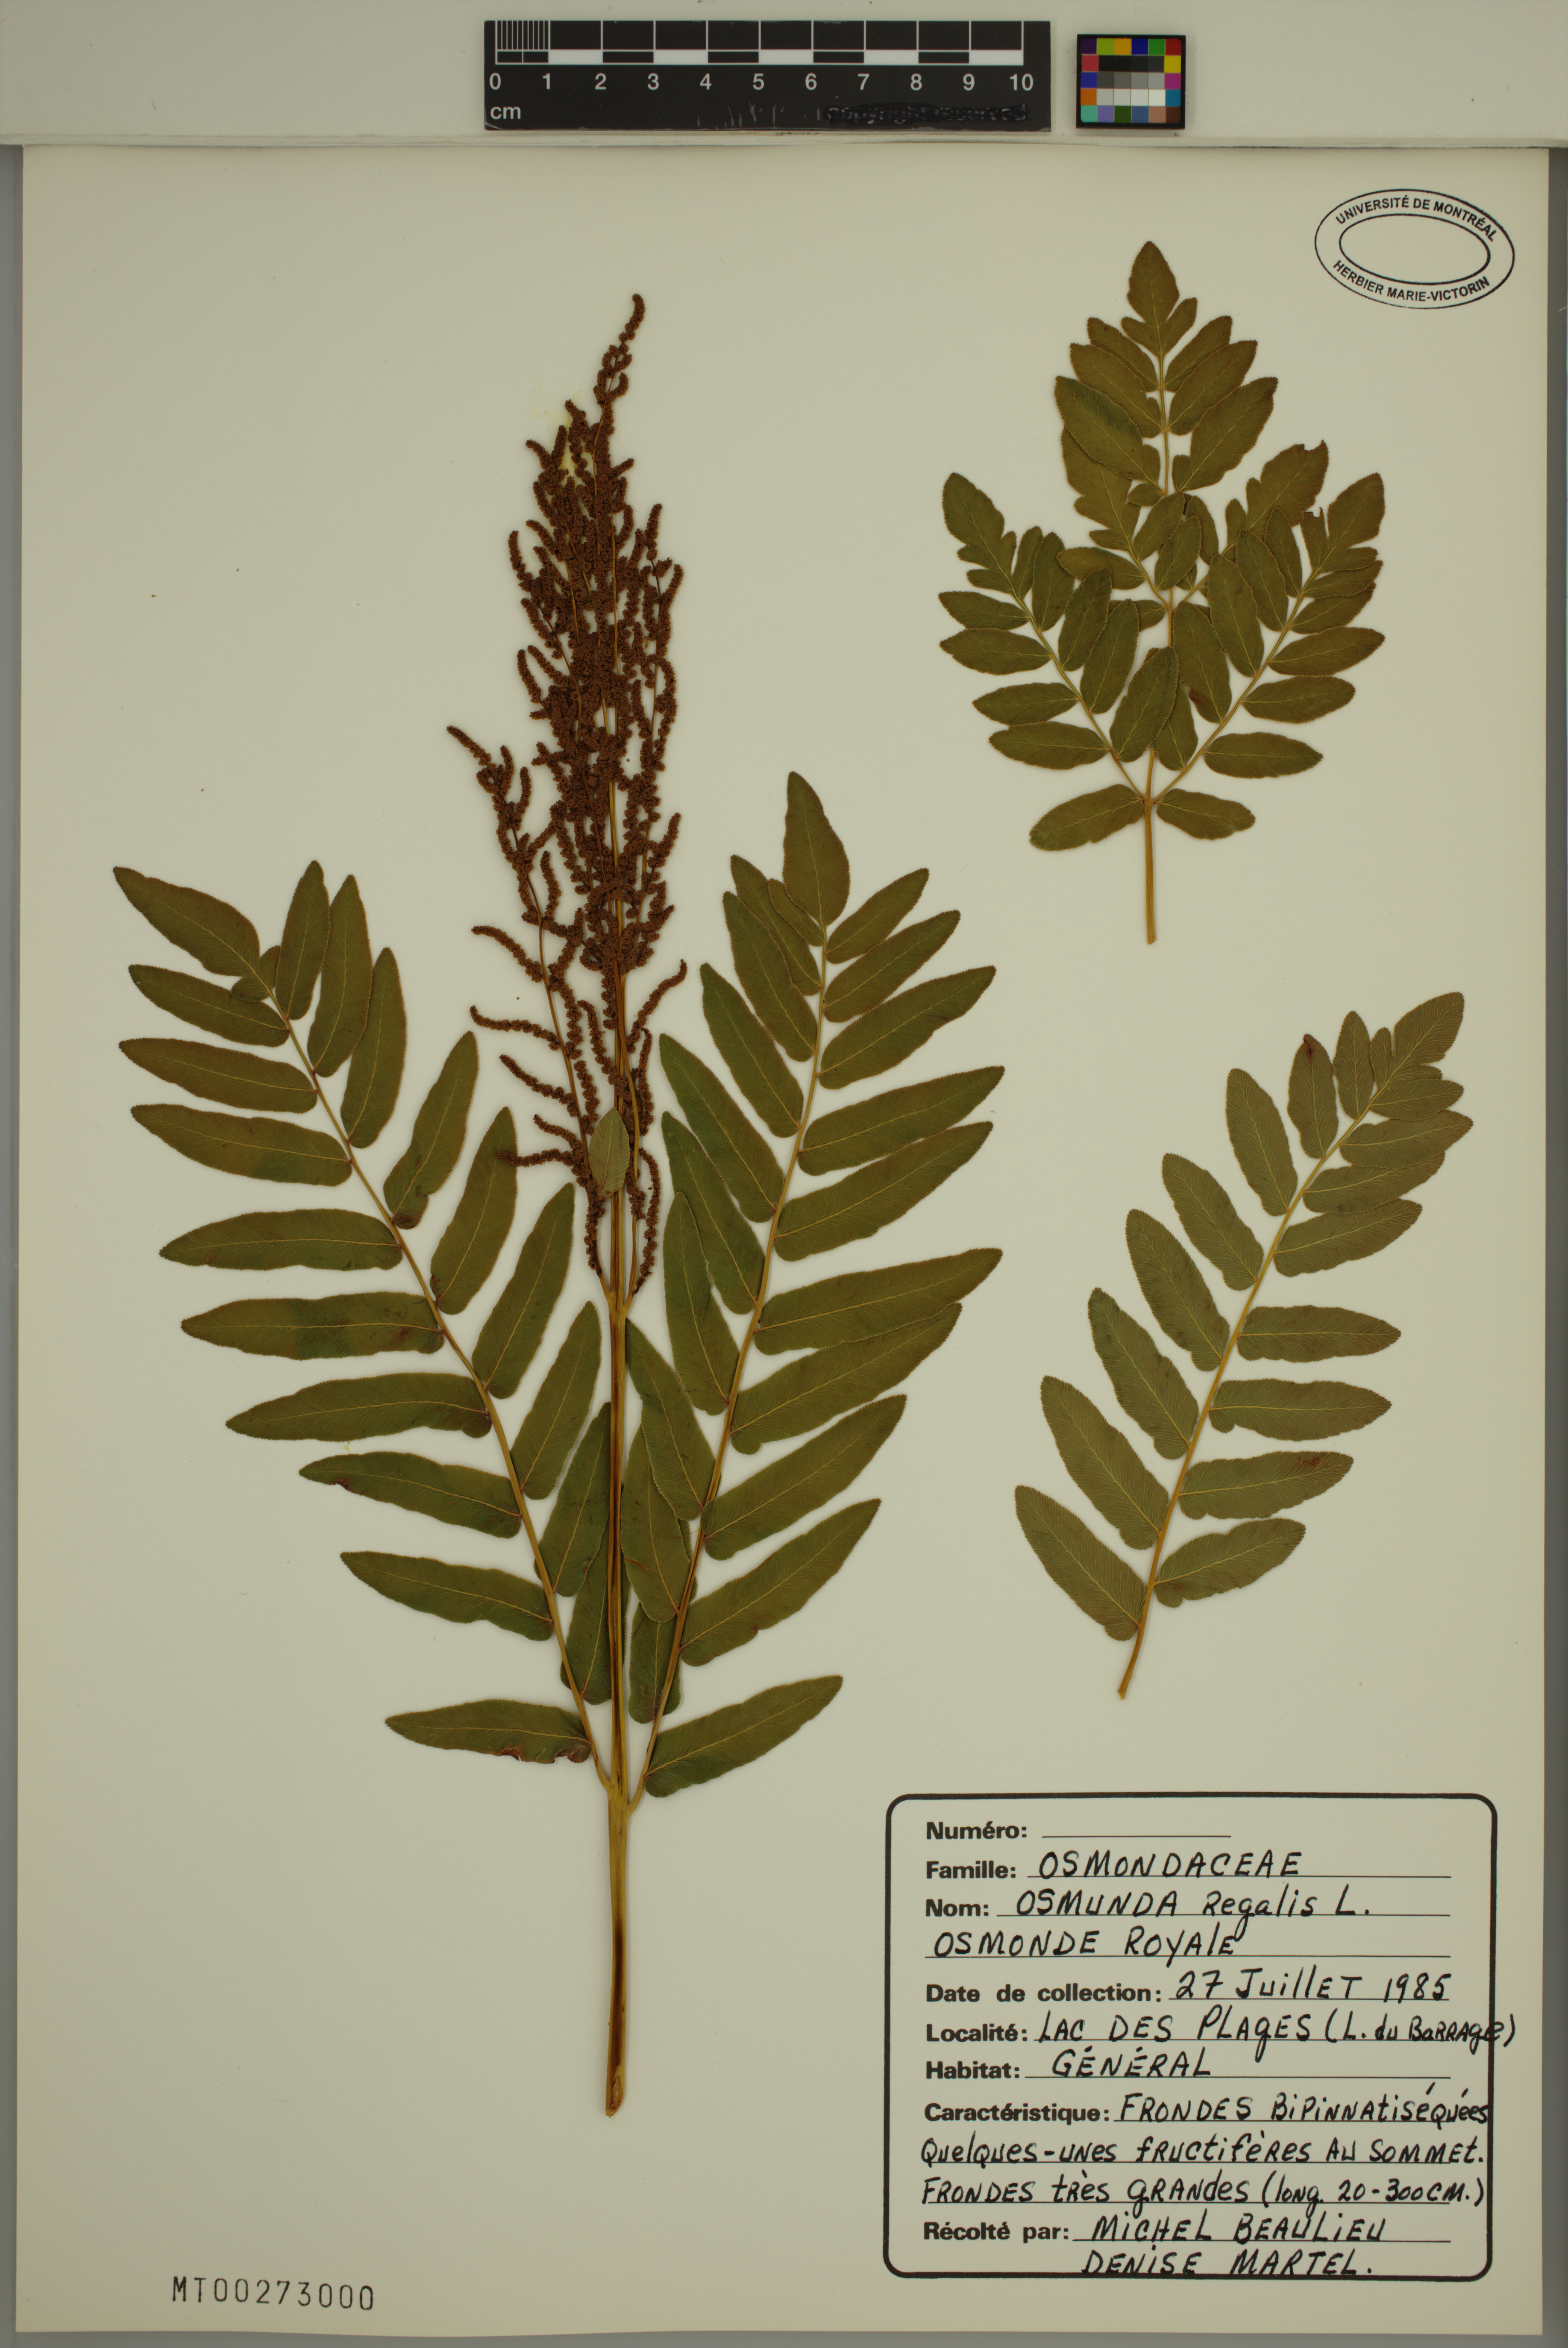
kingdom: Plantae
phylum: Tracheophyta
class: Polypodiopsida
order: Osmundales
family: Osmundaceae
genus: Osmunda
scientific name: Osmunda regalis
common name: Royal fern
